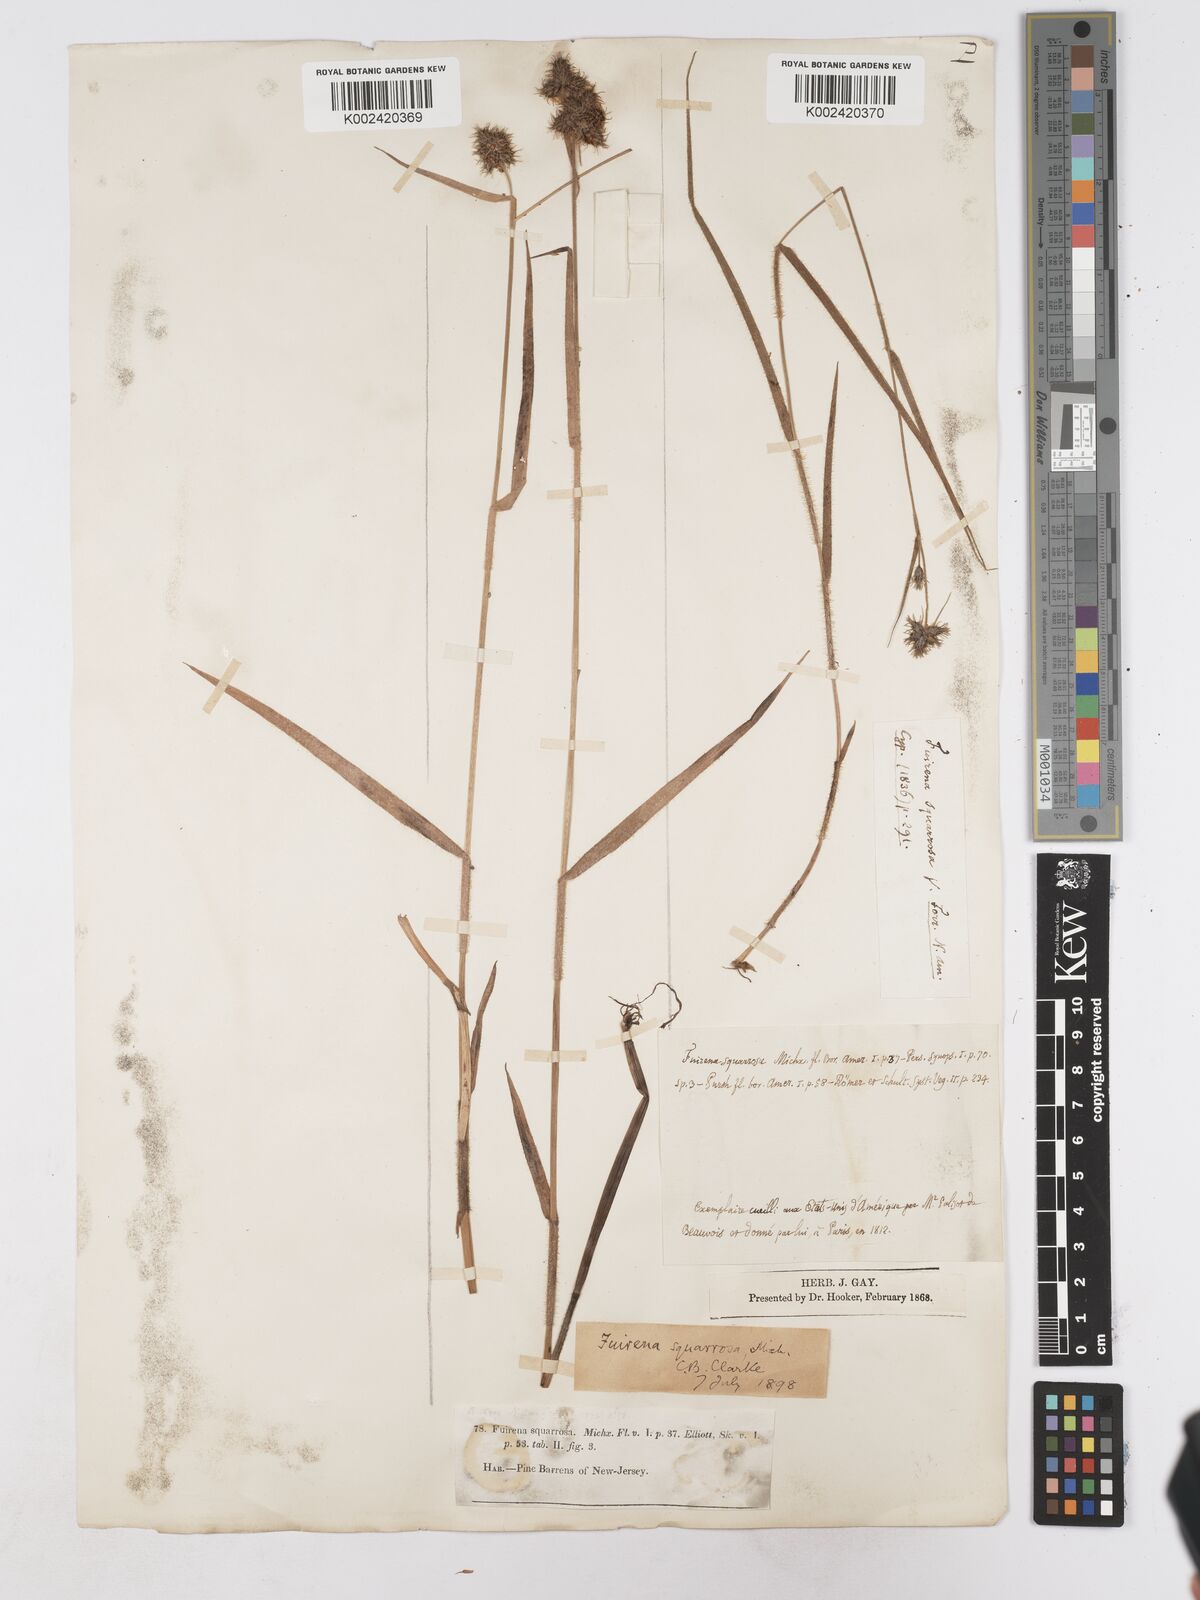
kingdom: Plantae
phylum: Tracheophyta
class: Liliopsida
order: Poales
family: Cyperaceae
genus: Fuirena
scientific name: Fuirena squarrosa
